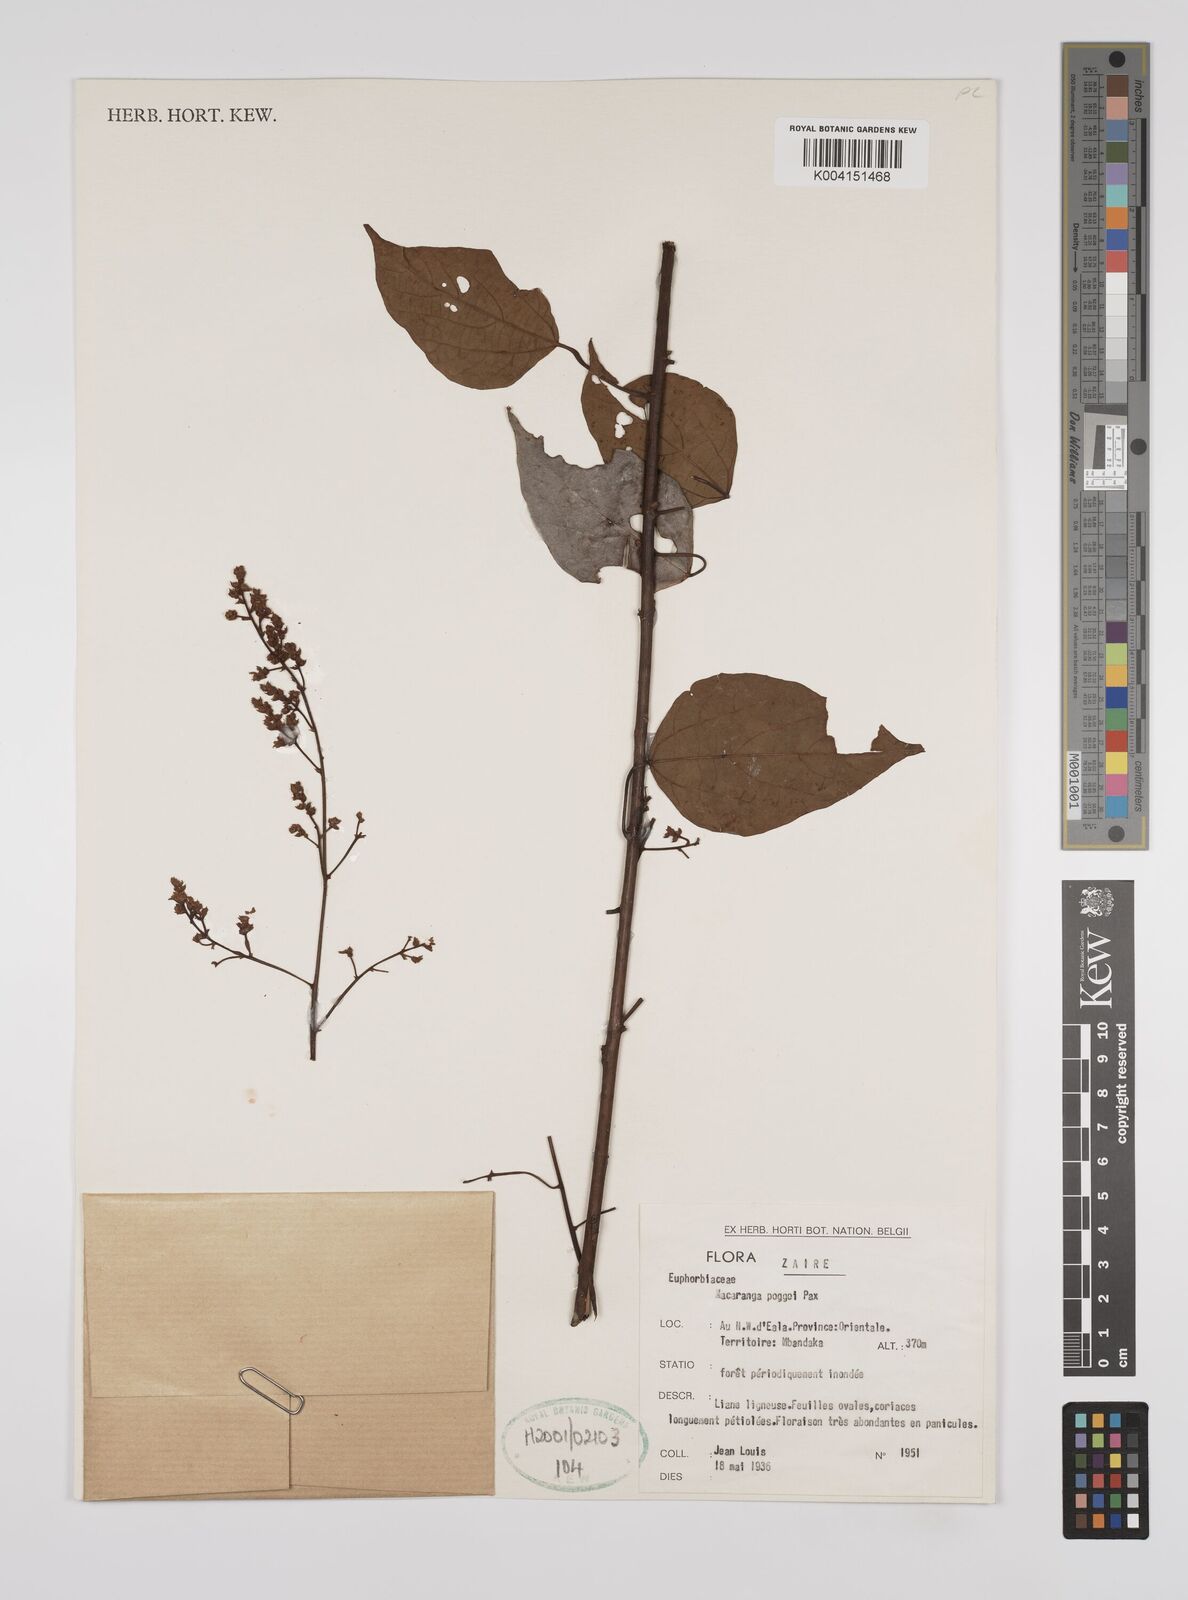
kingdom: Plantae
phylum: Tracheophyta
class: Magnoliopsida
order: Malpighiales
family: Euphorbiaceae
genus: Macaranga
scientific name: Macaranga poggei
